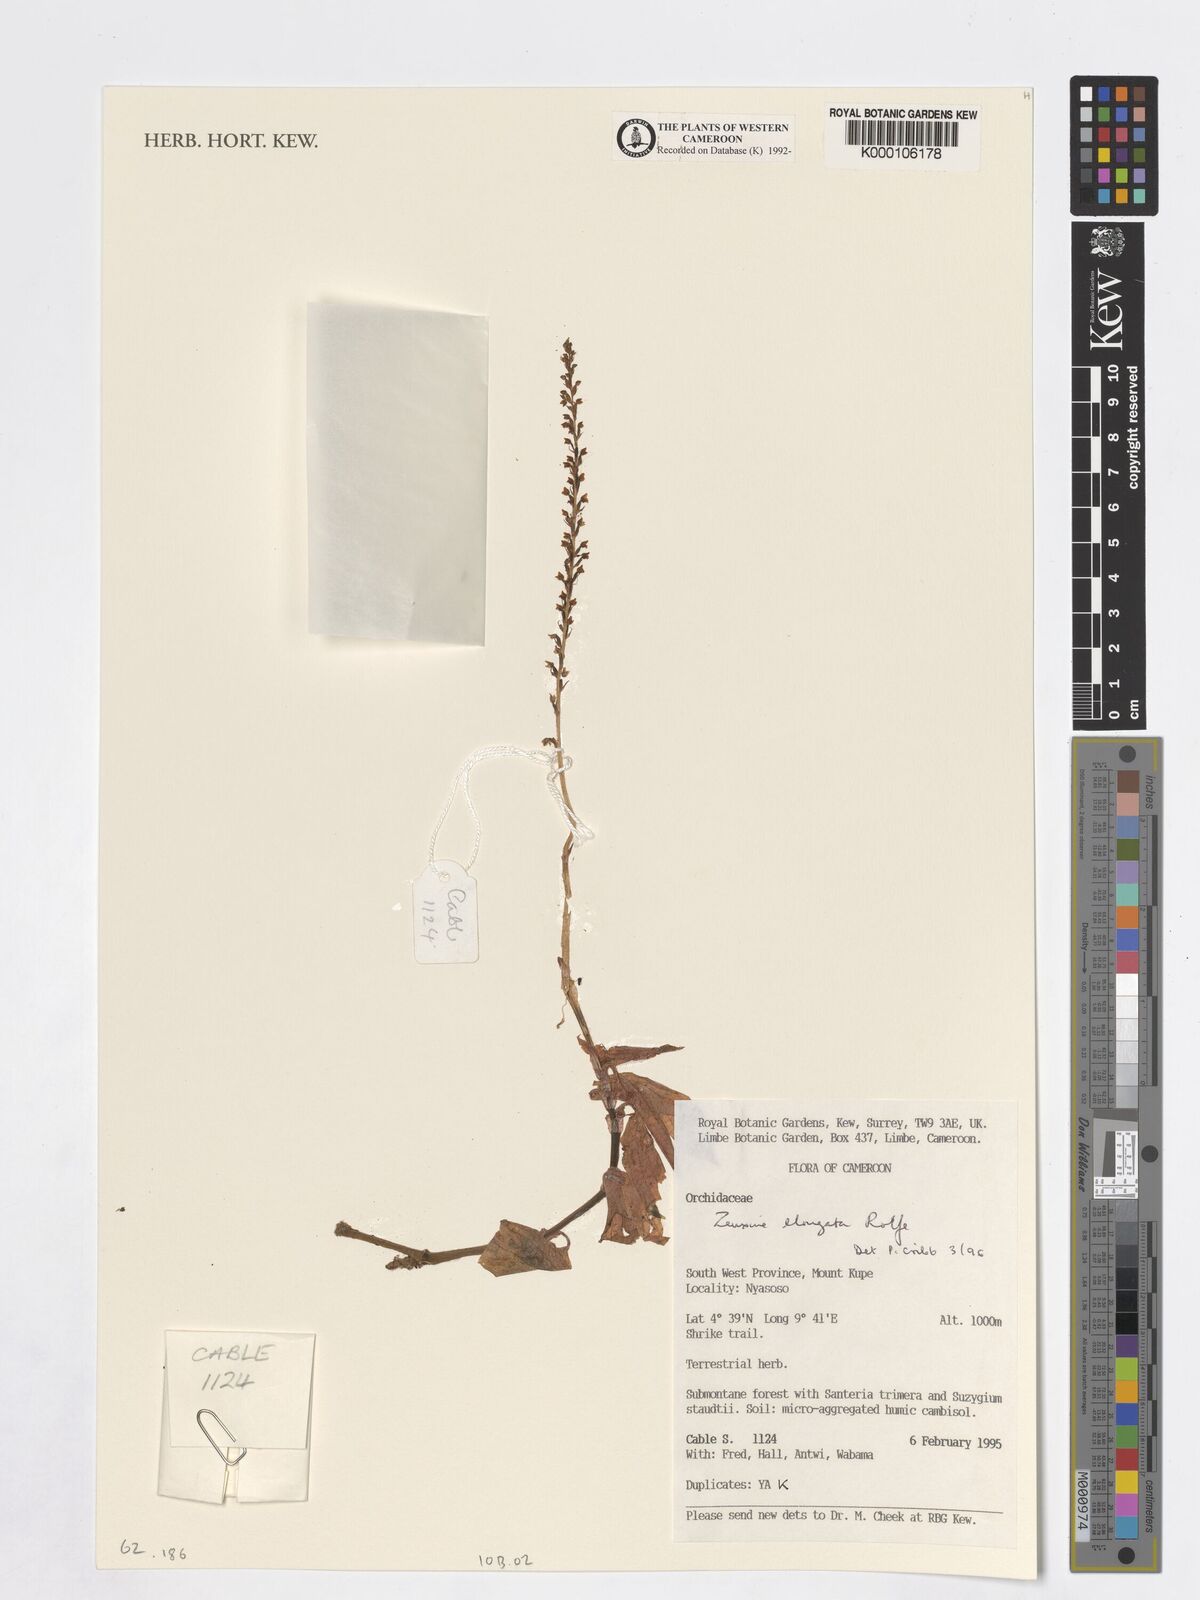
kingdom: Plantae
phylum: Tracheophyta
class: Liliopsida
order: Asparagales
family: Orchidaceae
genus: Zeuxine
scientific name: Zeuxine elongata
